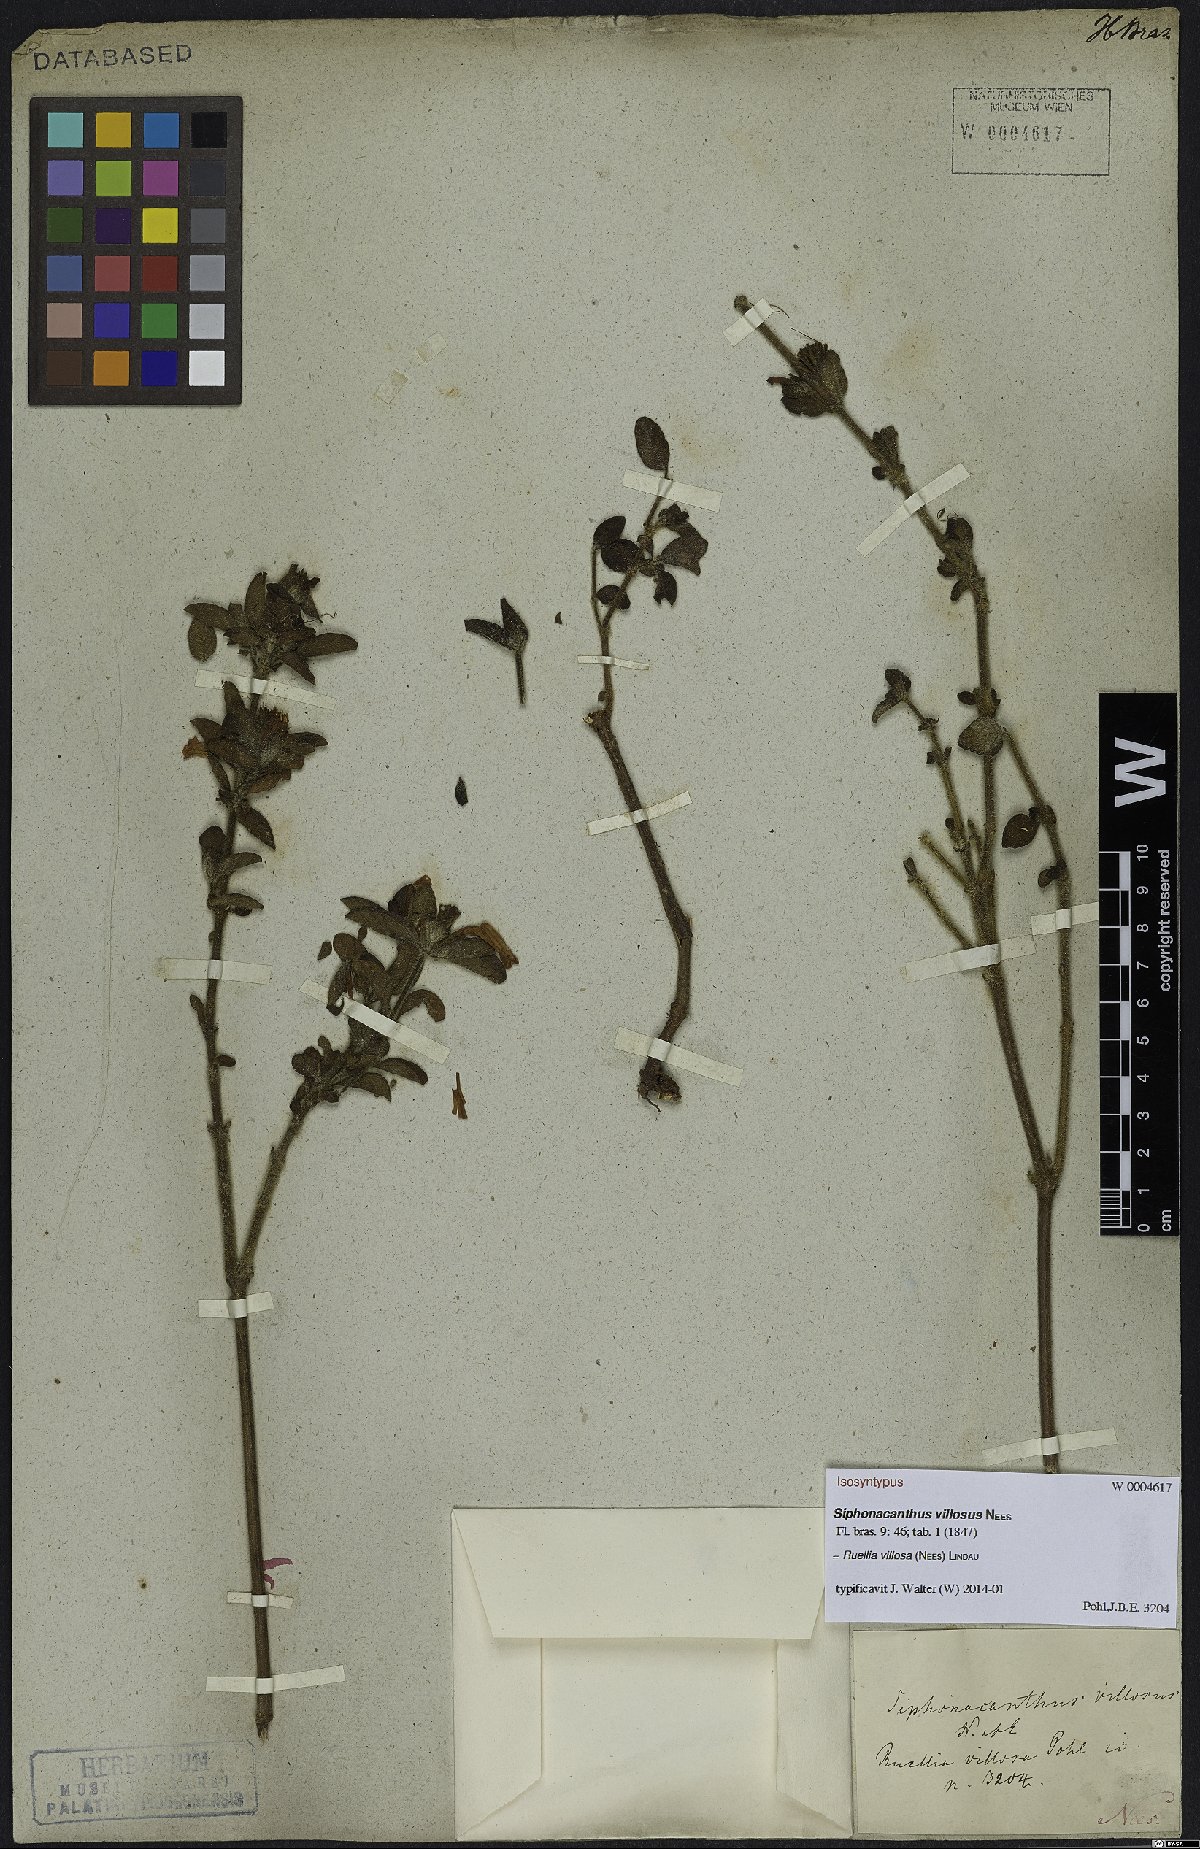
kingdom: Plantae
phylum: Tracheophyta
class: Magnoliopsida
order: Lamiales
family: Acanthaceae
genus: Ruellia
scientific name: Ruellia villosa
